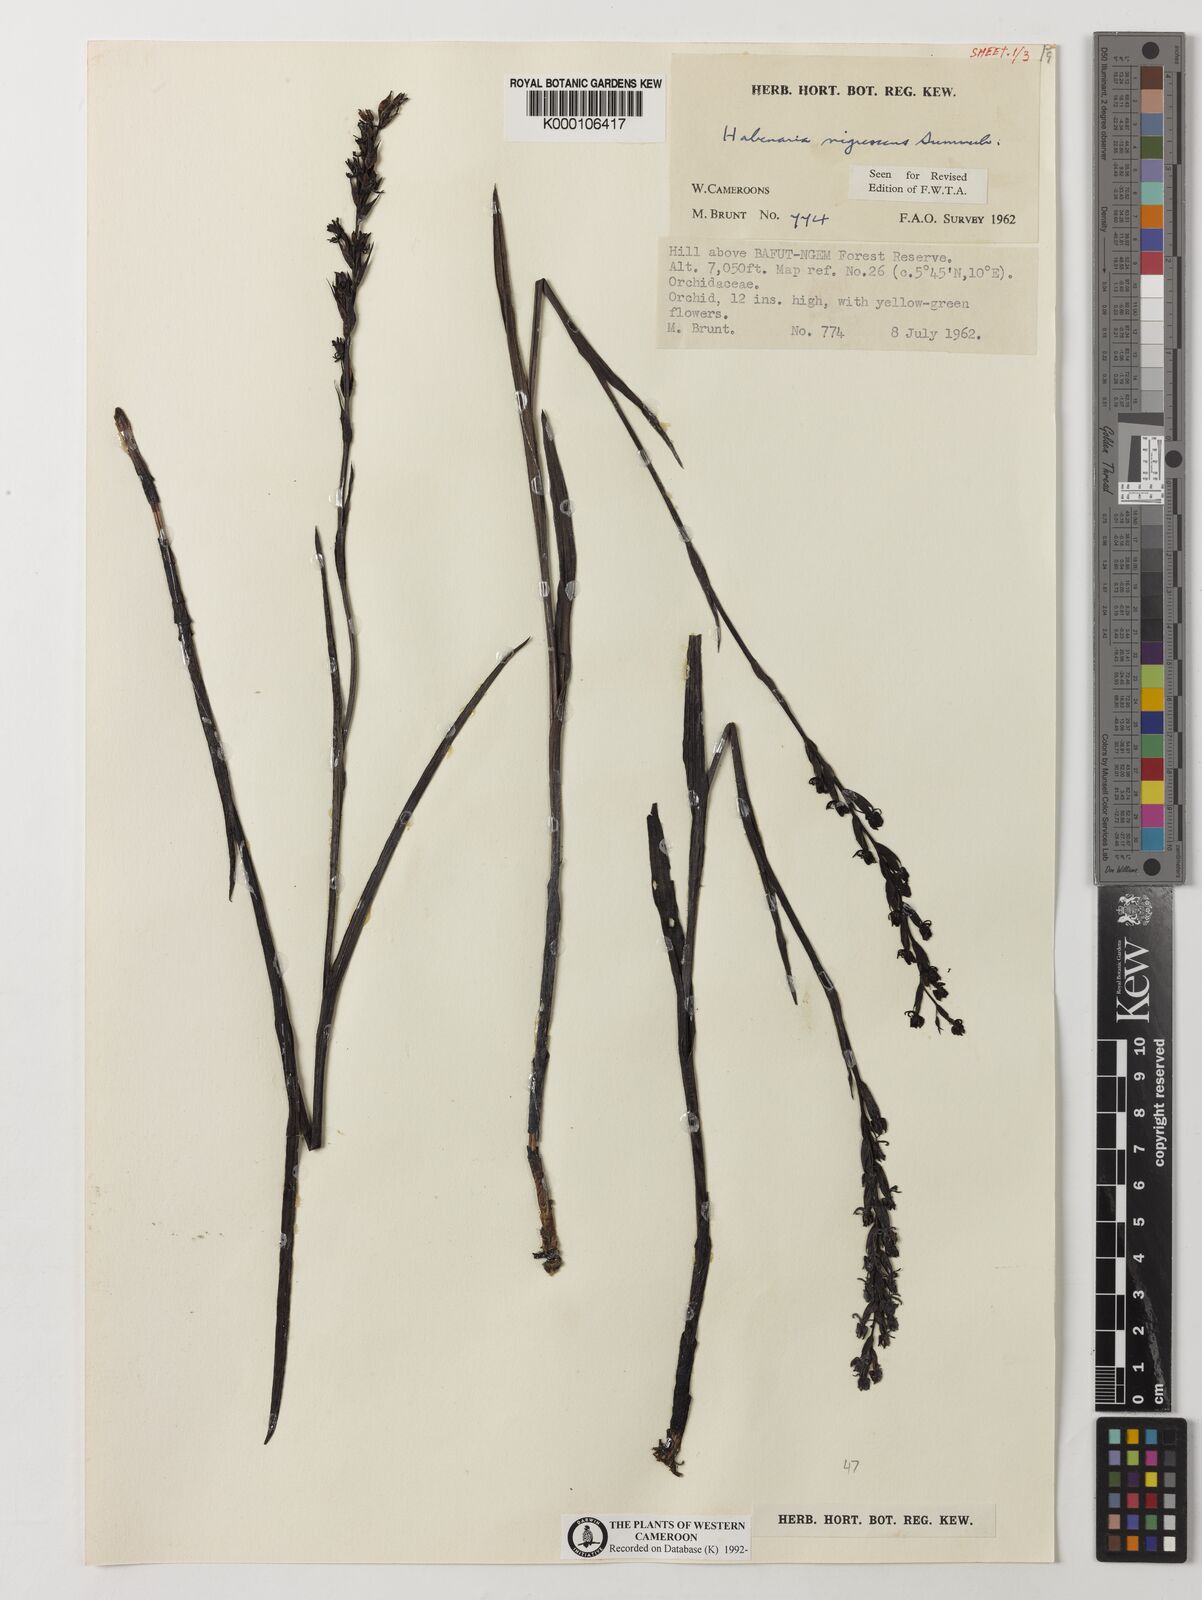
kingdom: Plantae
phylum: Tracheophyta
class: Liliopsida
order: Asparagales
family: Orchidaceae
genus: Habenaria
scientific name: Habenaria nigrescens
